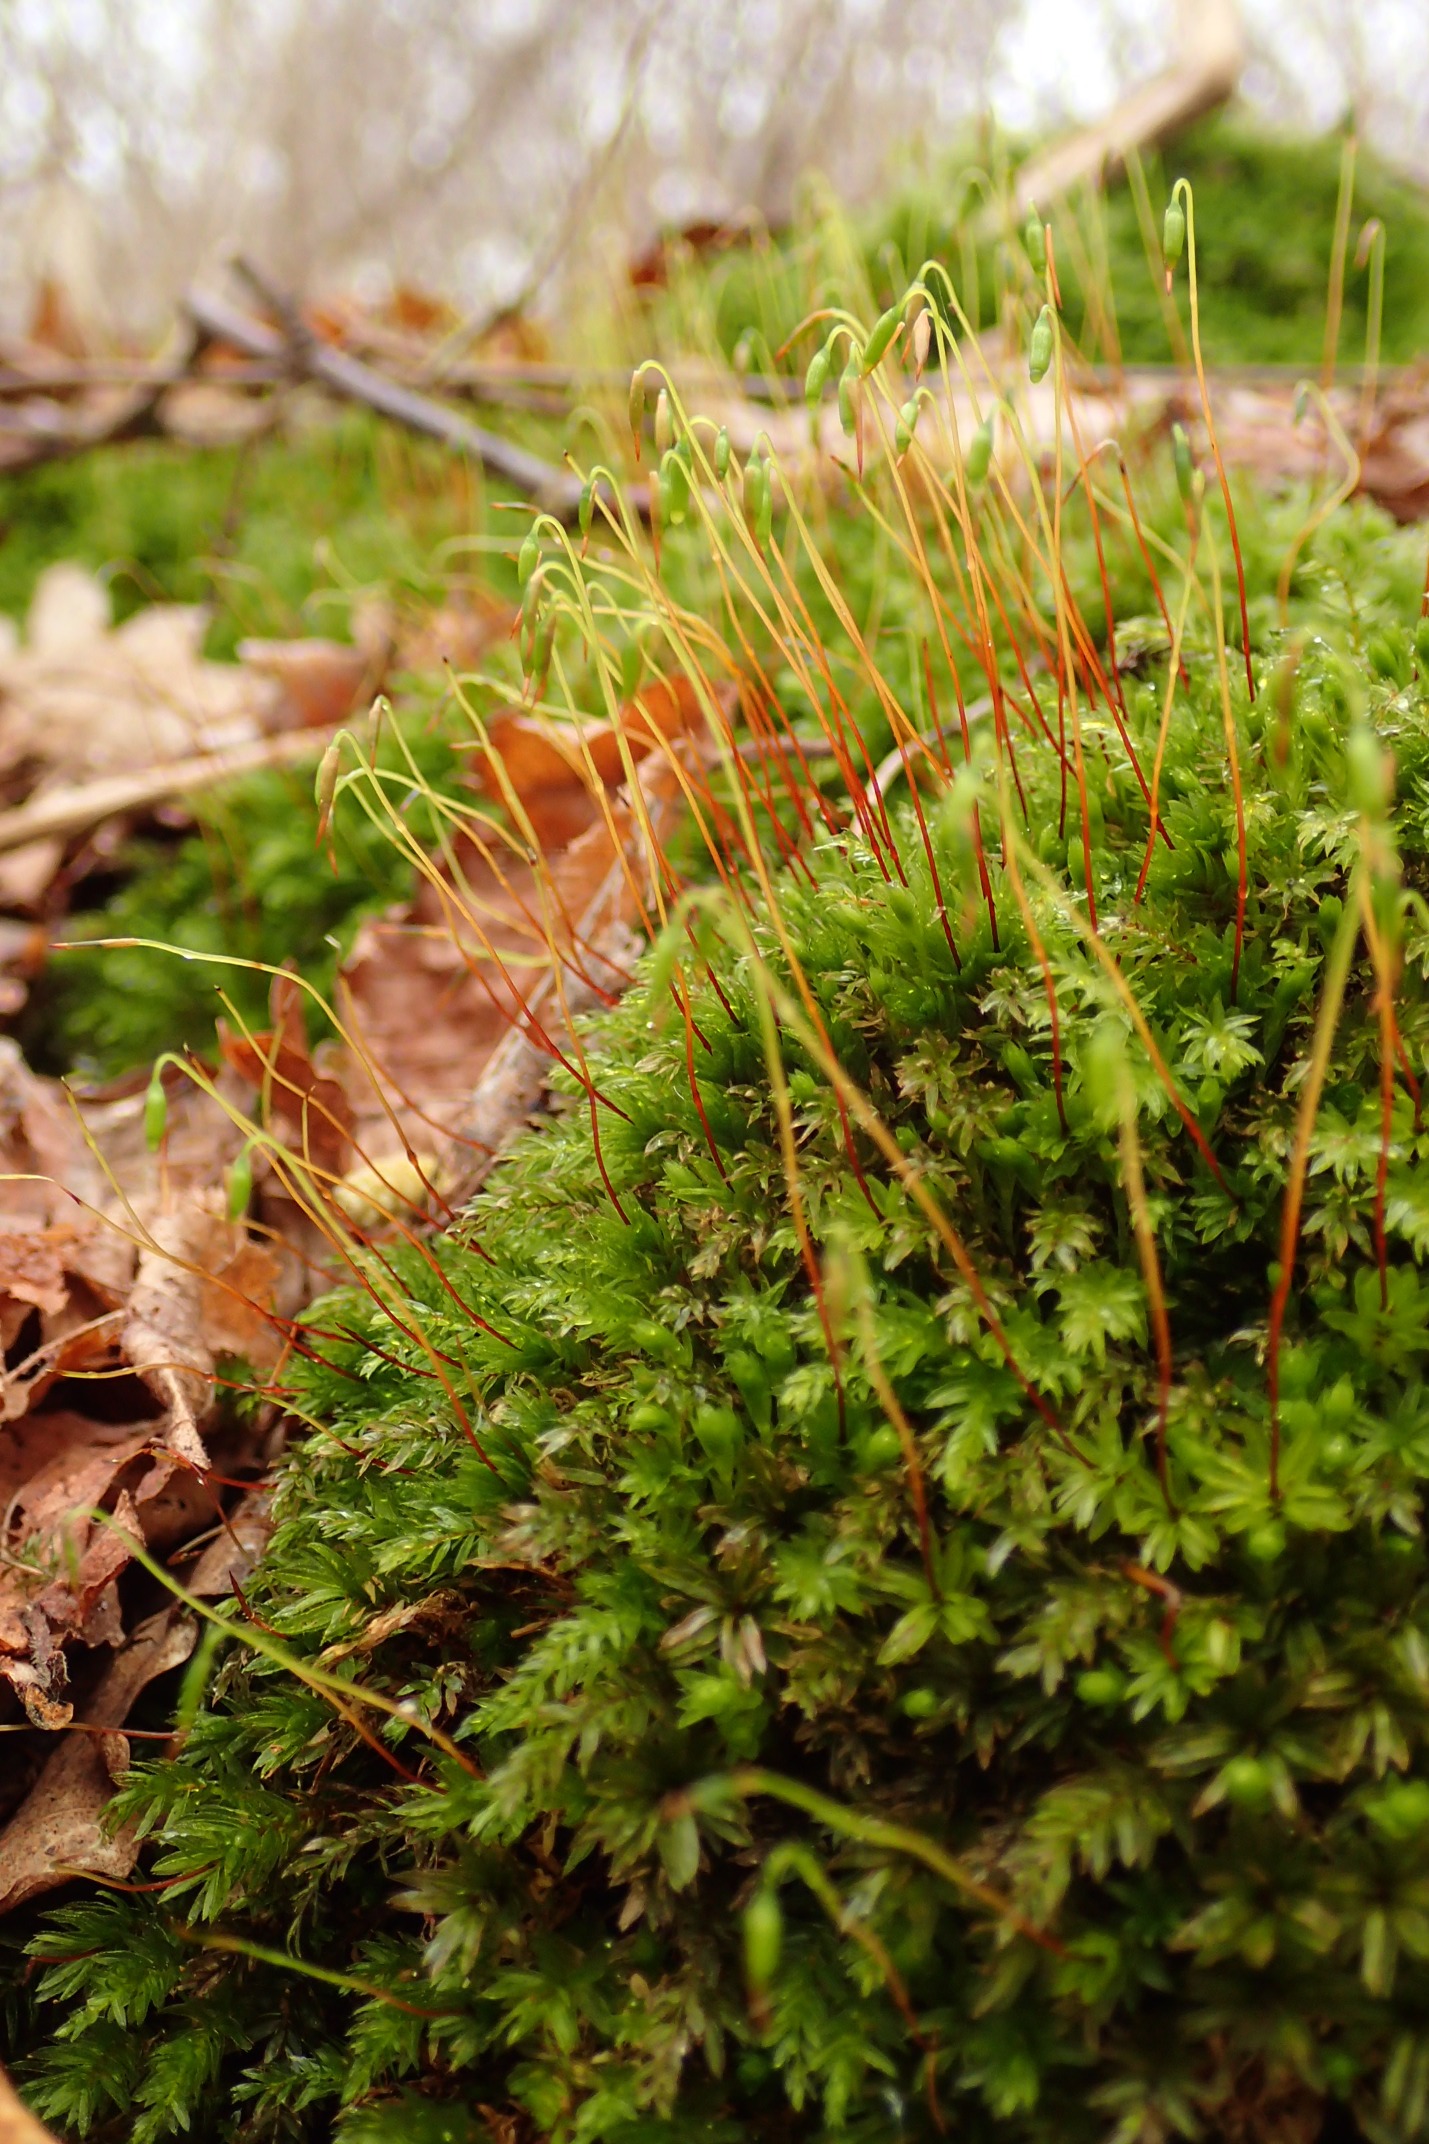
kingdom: Plantae
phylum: Bryophyta
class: Bryopsida
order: Bryales
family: Mniaceae
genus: Mnium
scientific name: Mnium hornum
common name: Brunfiltet stjernemos
